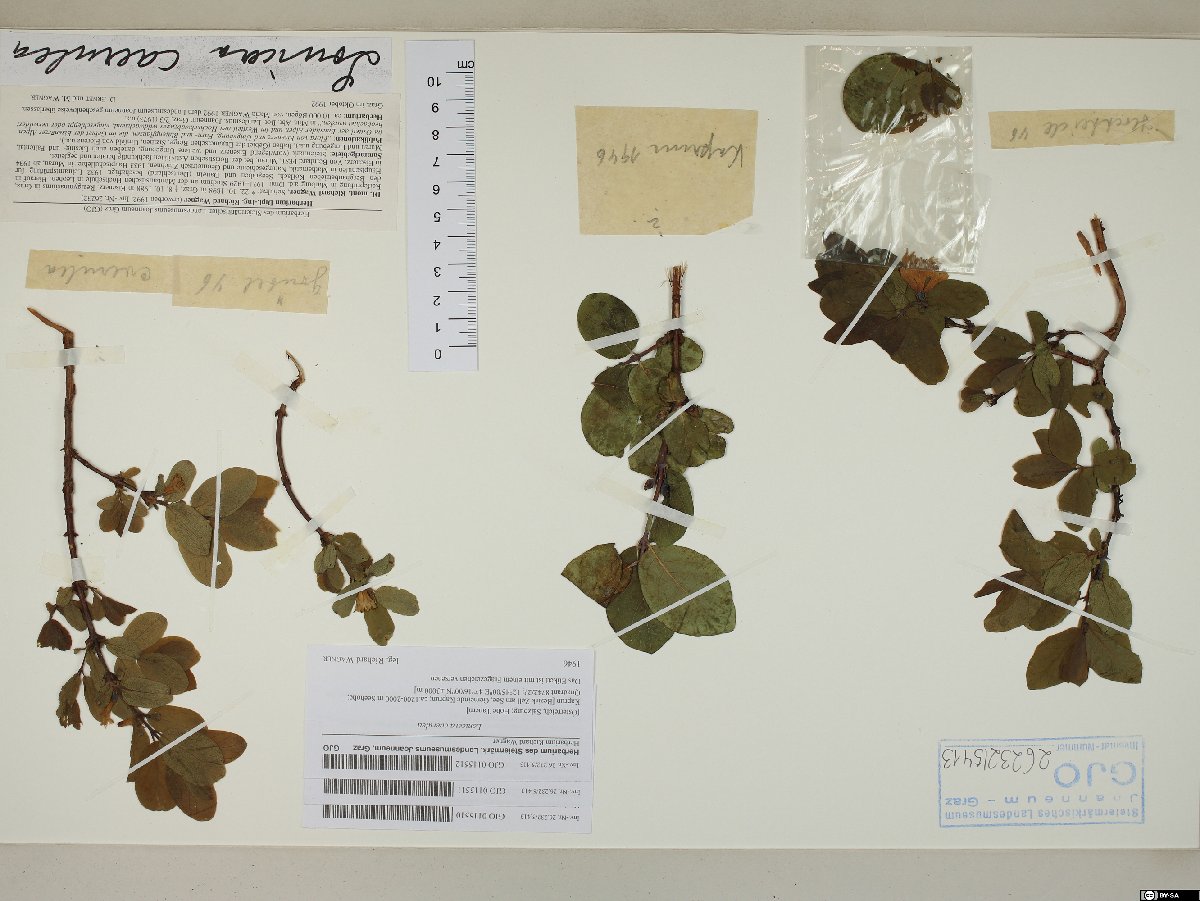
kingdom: Plantae
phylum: Tracheophyta
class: Magnoliopsida
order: Dipsacales
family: Caprifoliaceae
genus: Lonicera
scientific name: Lonicera caerulea
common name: Blue honeysuckle
